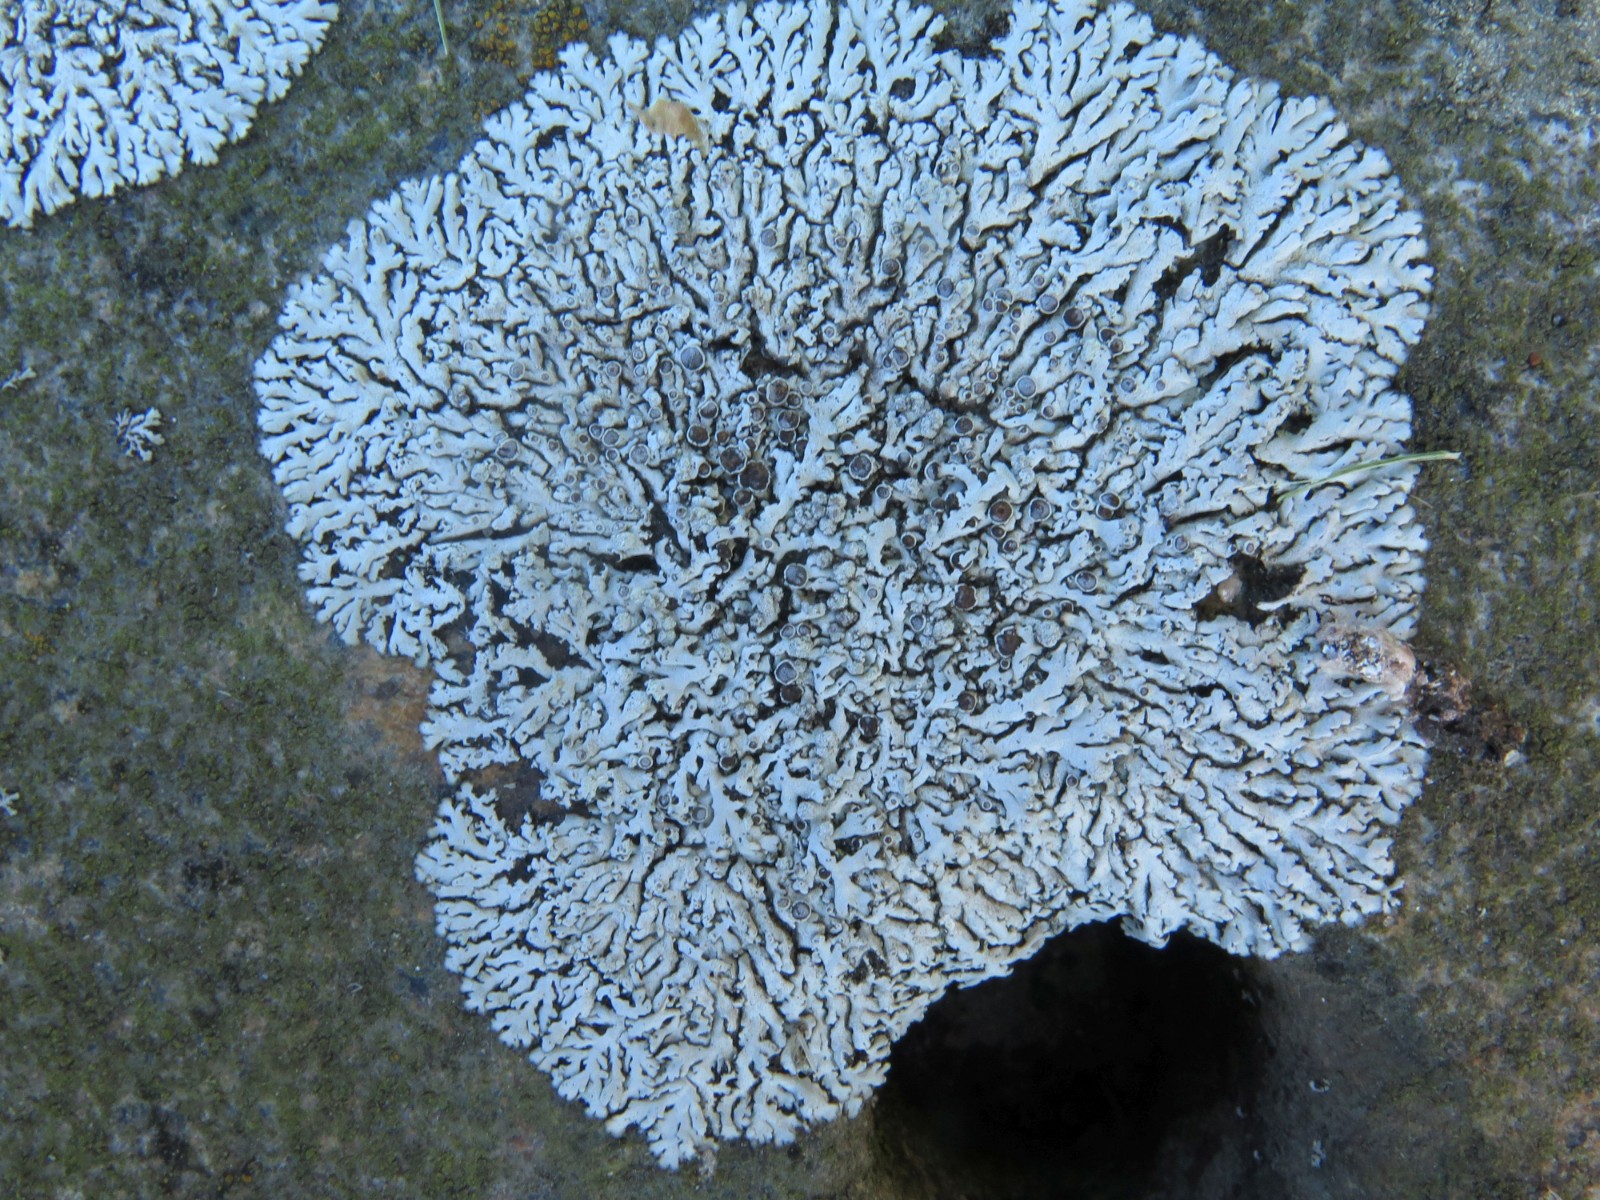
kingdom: Fungi
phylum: Ascomycota
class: Lecanoromycetes
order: Caliciales
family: Physciaceae
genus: Physcia
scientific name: Physcia dubia
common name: fuglestens-rosetlav
